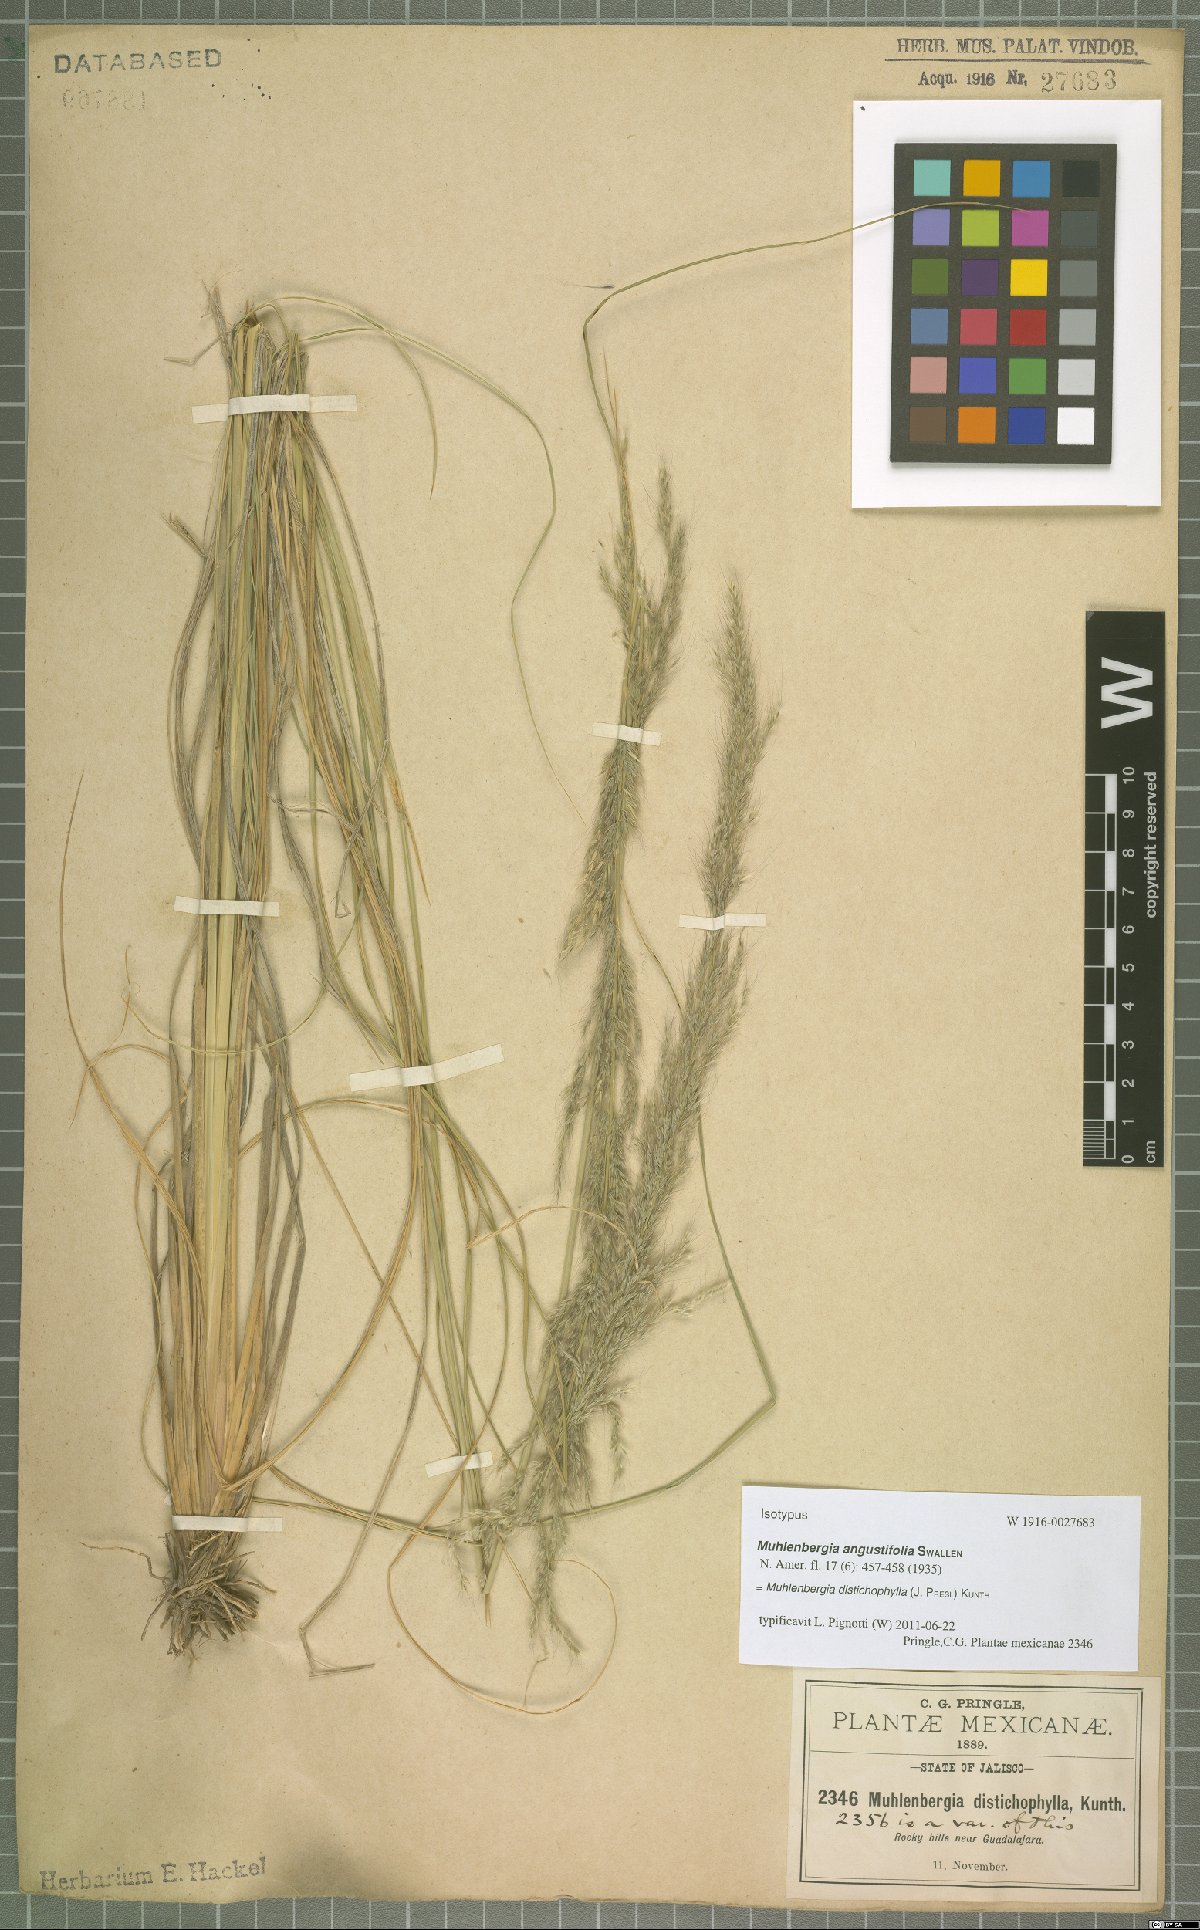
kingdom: Plantae
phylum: Tracheophyta
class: Liliopsida
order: Poales
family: Poaceae
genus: Muhlenbergia
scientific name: Muhlenbergia distichophylla
